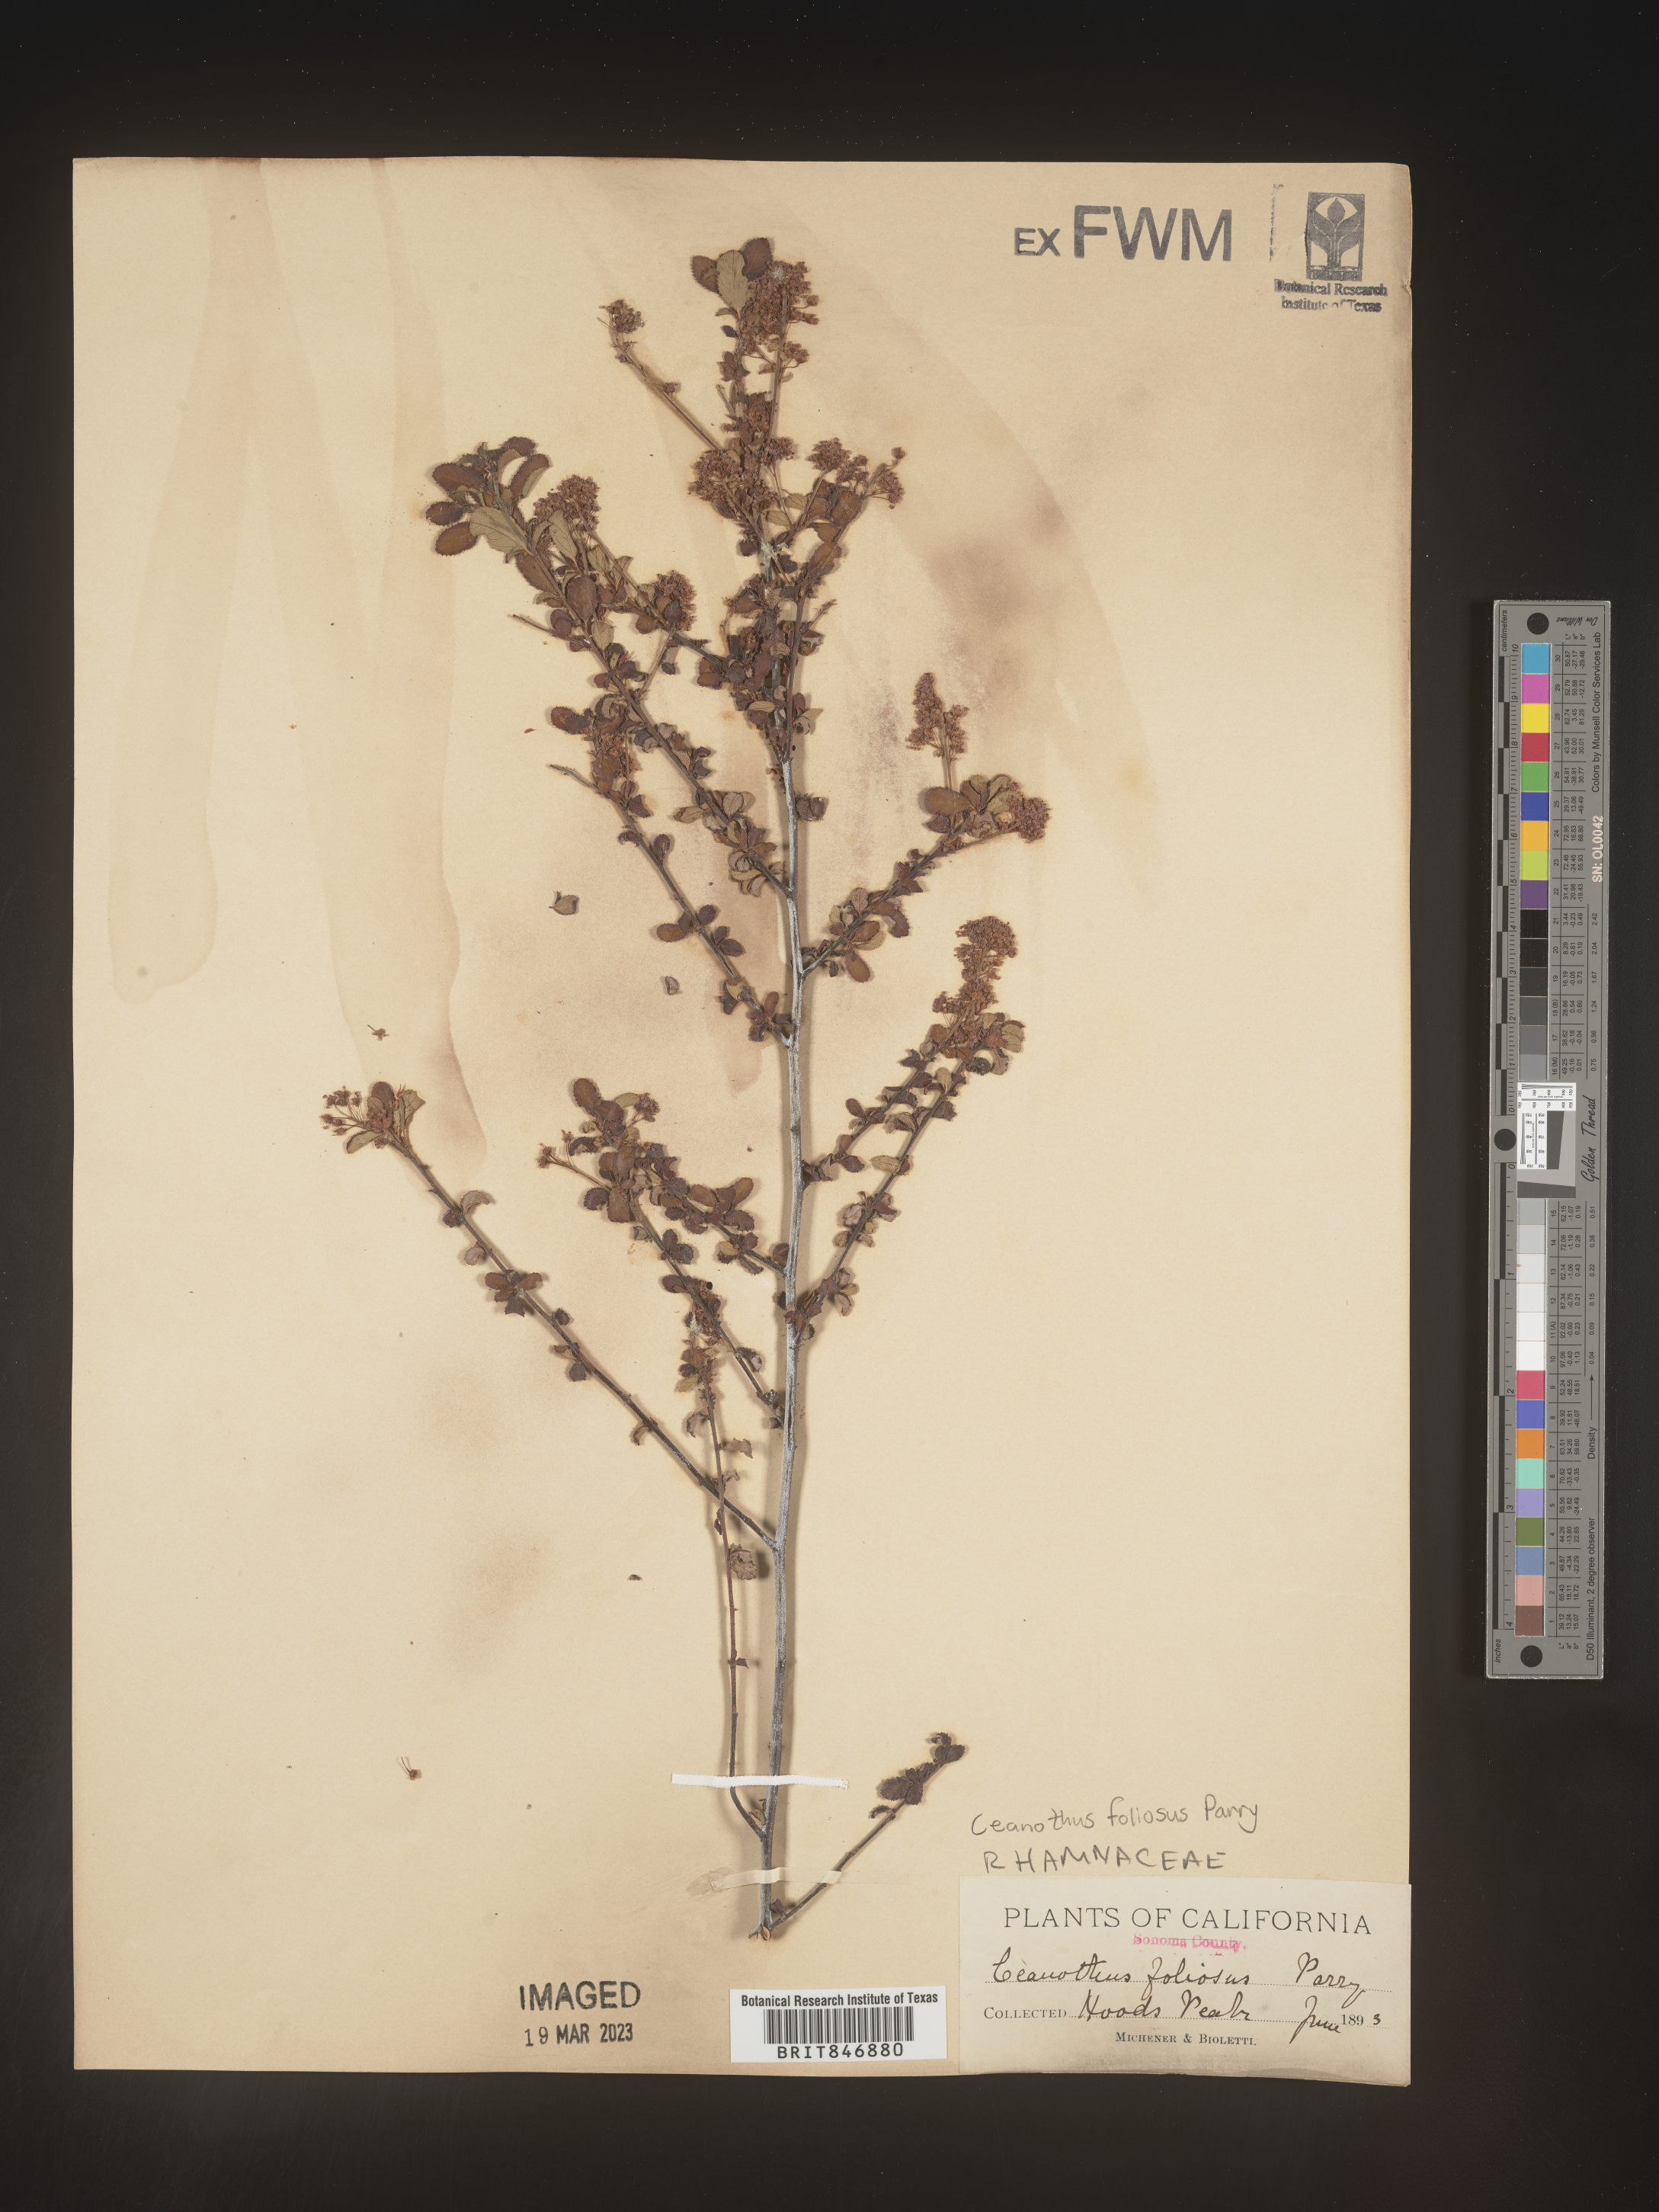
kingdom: Plantae
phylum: Tracheophyta
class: Magnoliopsida
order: Rosales
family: Rhamnaceae
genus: Ceanothus
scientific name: Ceanothus
